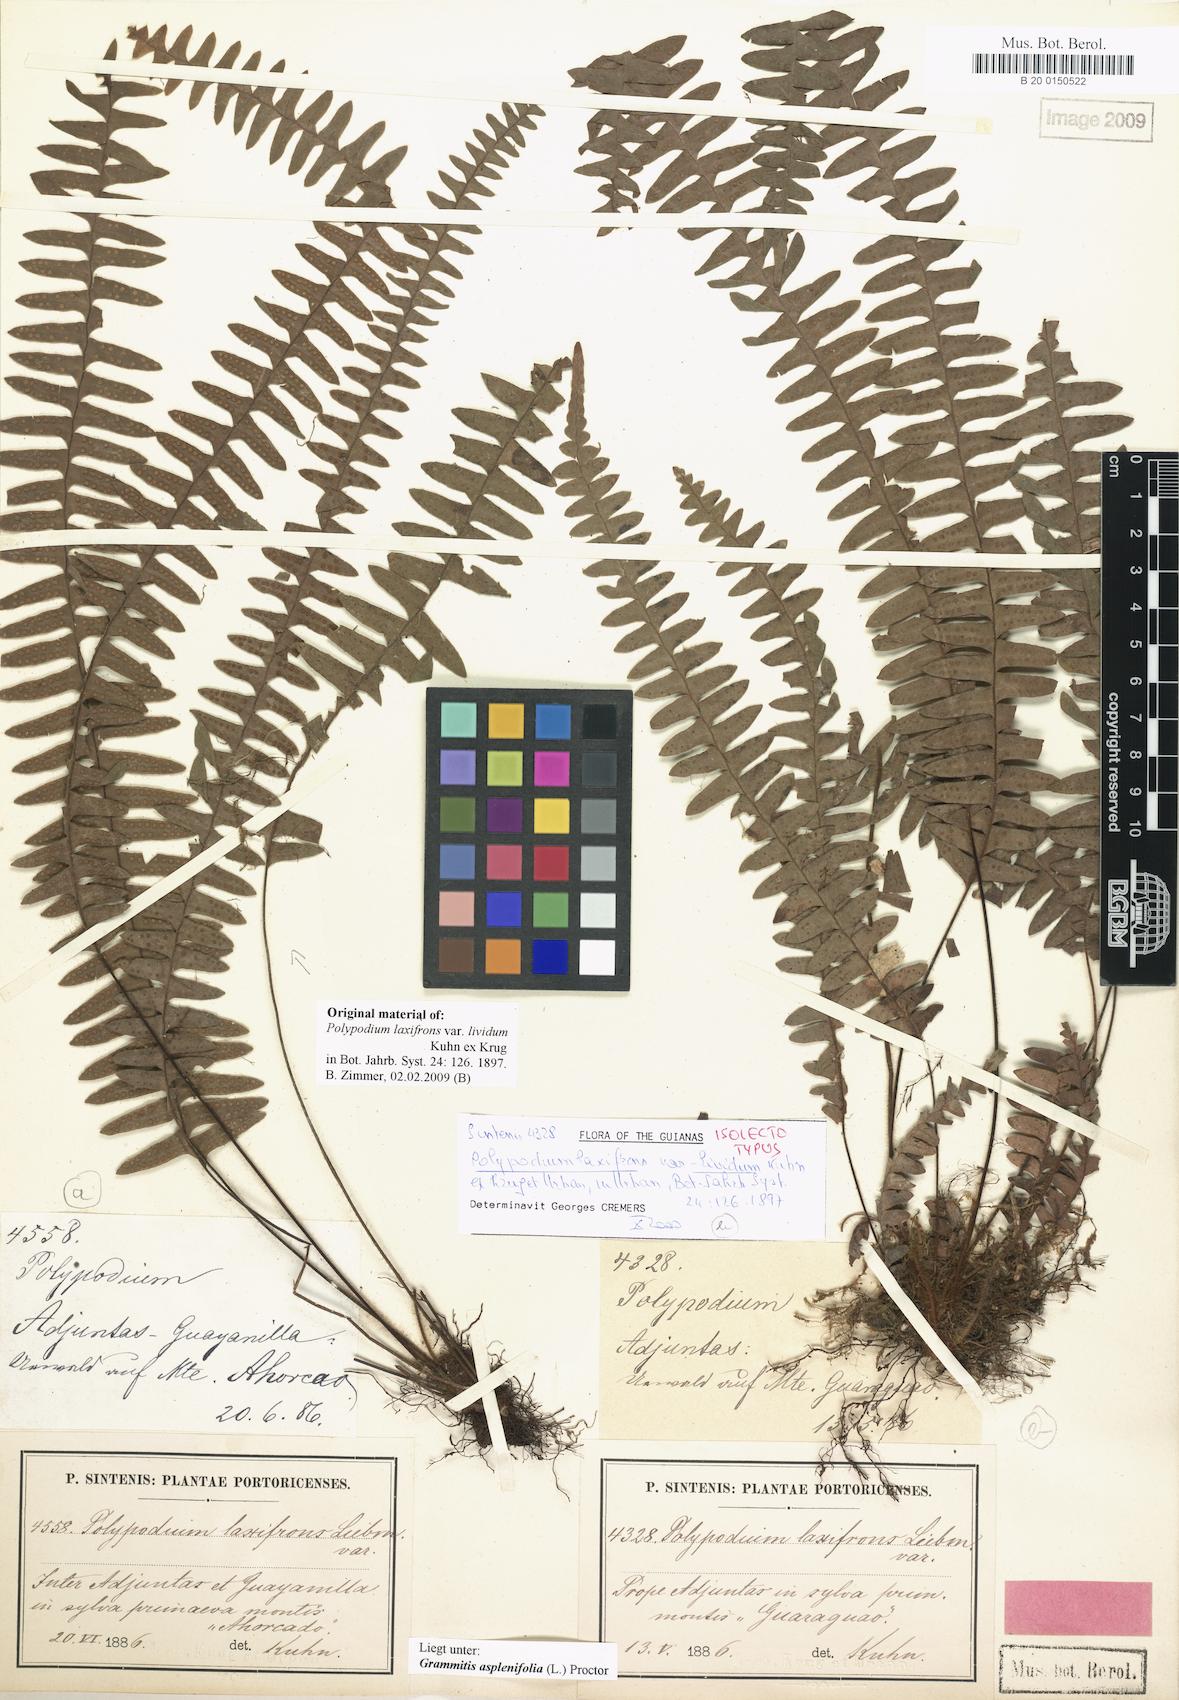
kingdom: Plantae
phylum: Tracheophyta
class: Polypodiopsida
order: Polypodiales
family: Polypodiaceae
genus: Terpsichore
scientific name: Terpsichore asplenifolia
